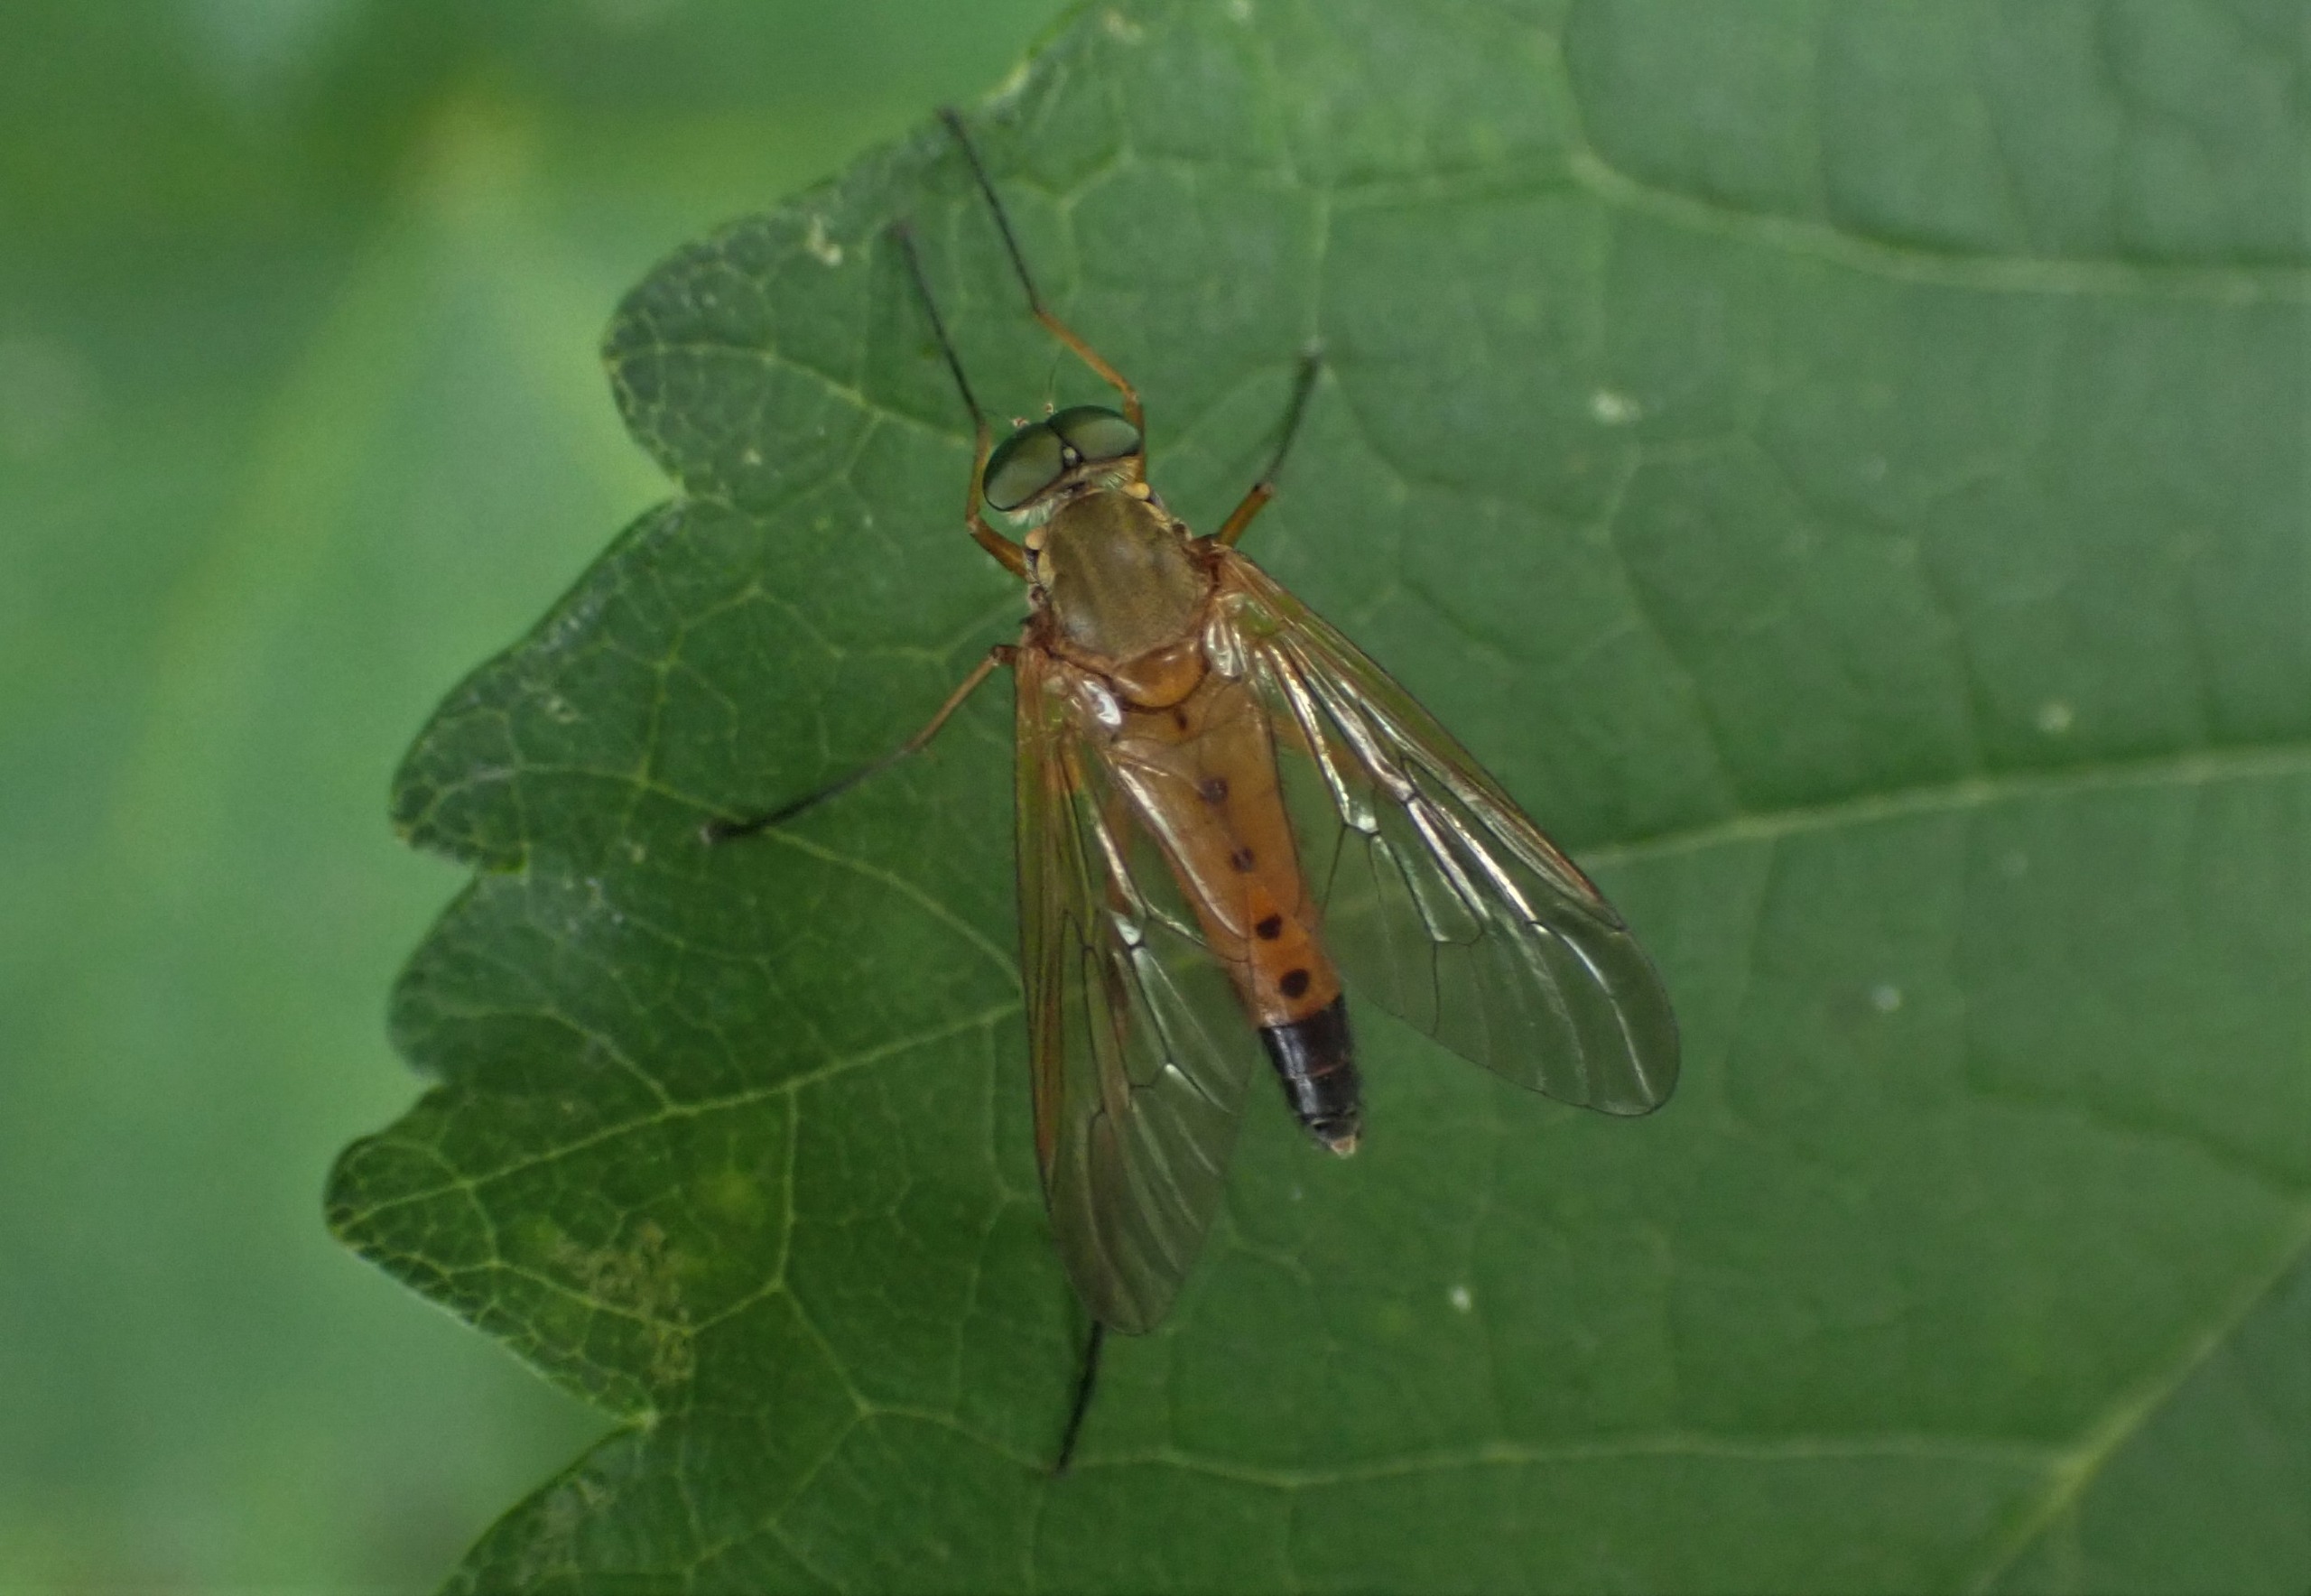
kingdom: Animalia
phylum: Arthropoda
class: Insecta
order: Diptera
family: Rhagionidae
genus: Rhagio
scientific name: Rhagio tringaria
